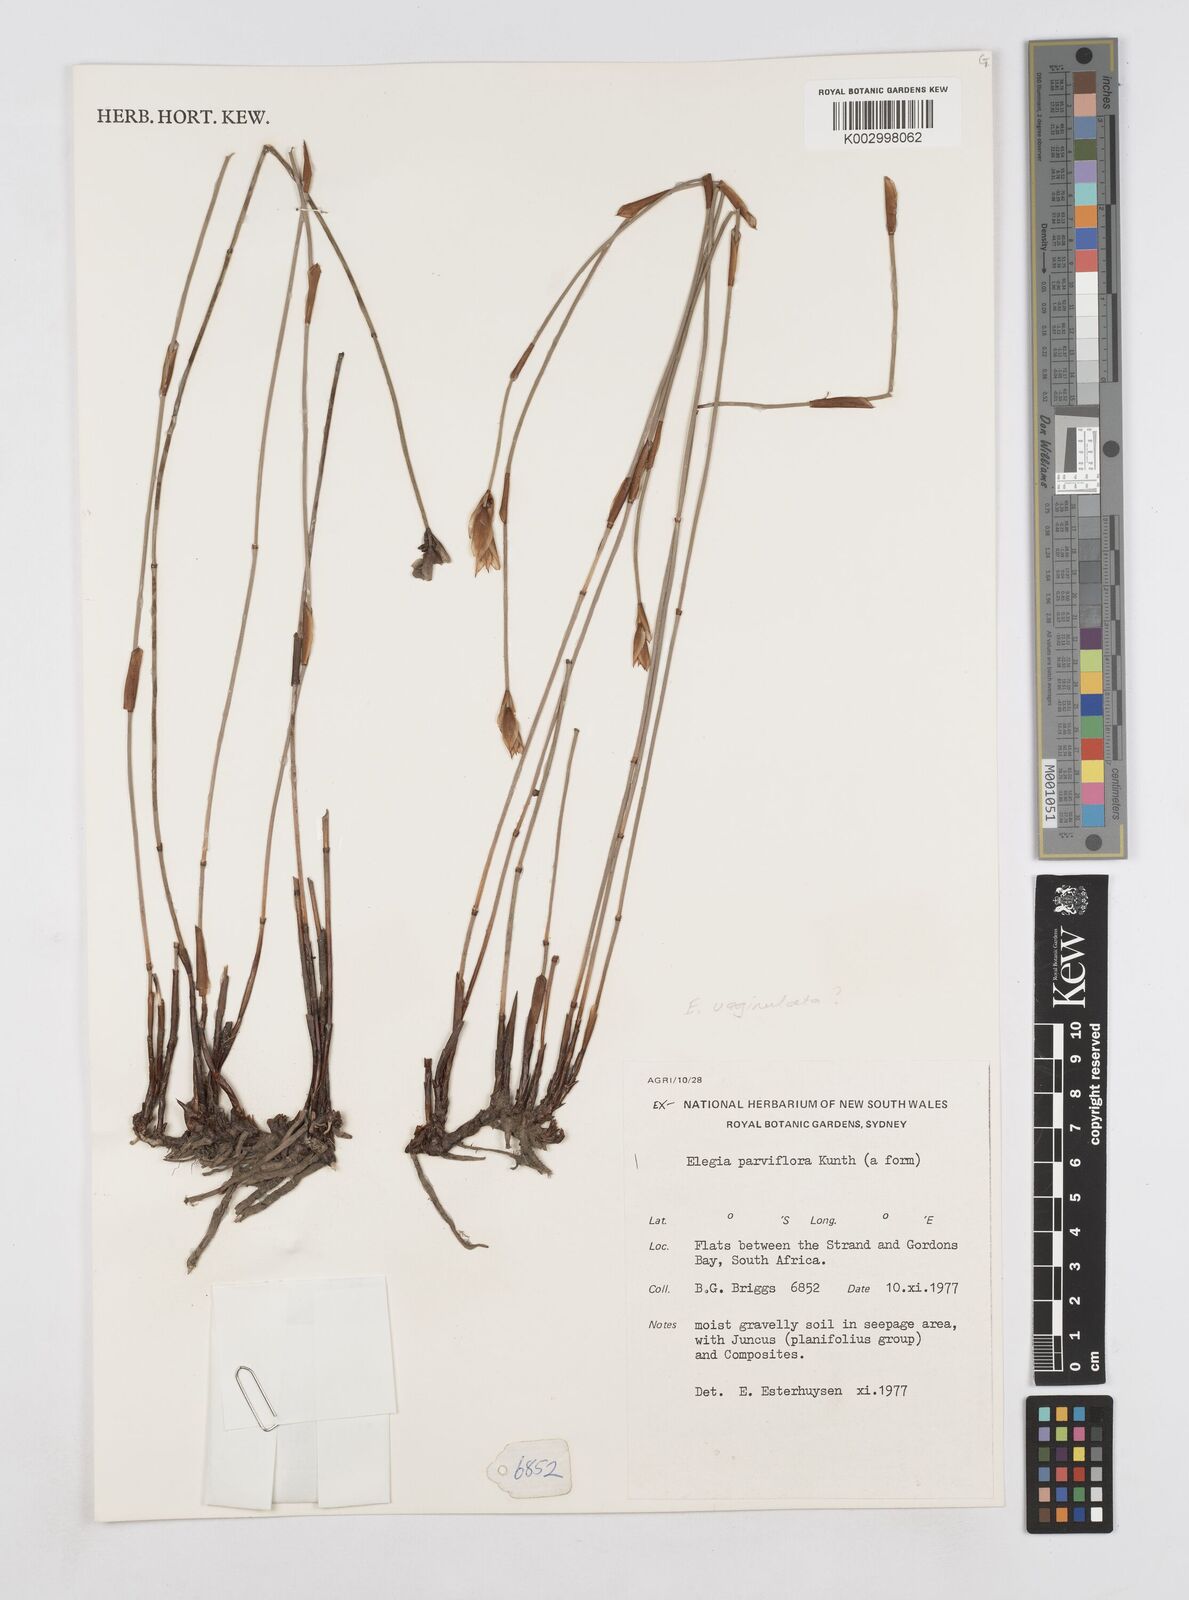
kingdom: Plantae
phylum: Tracheophyta
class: Liliopsida
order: Poales
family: Restionaceae
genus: Elegia
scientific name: Elegia vaginulata
